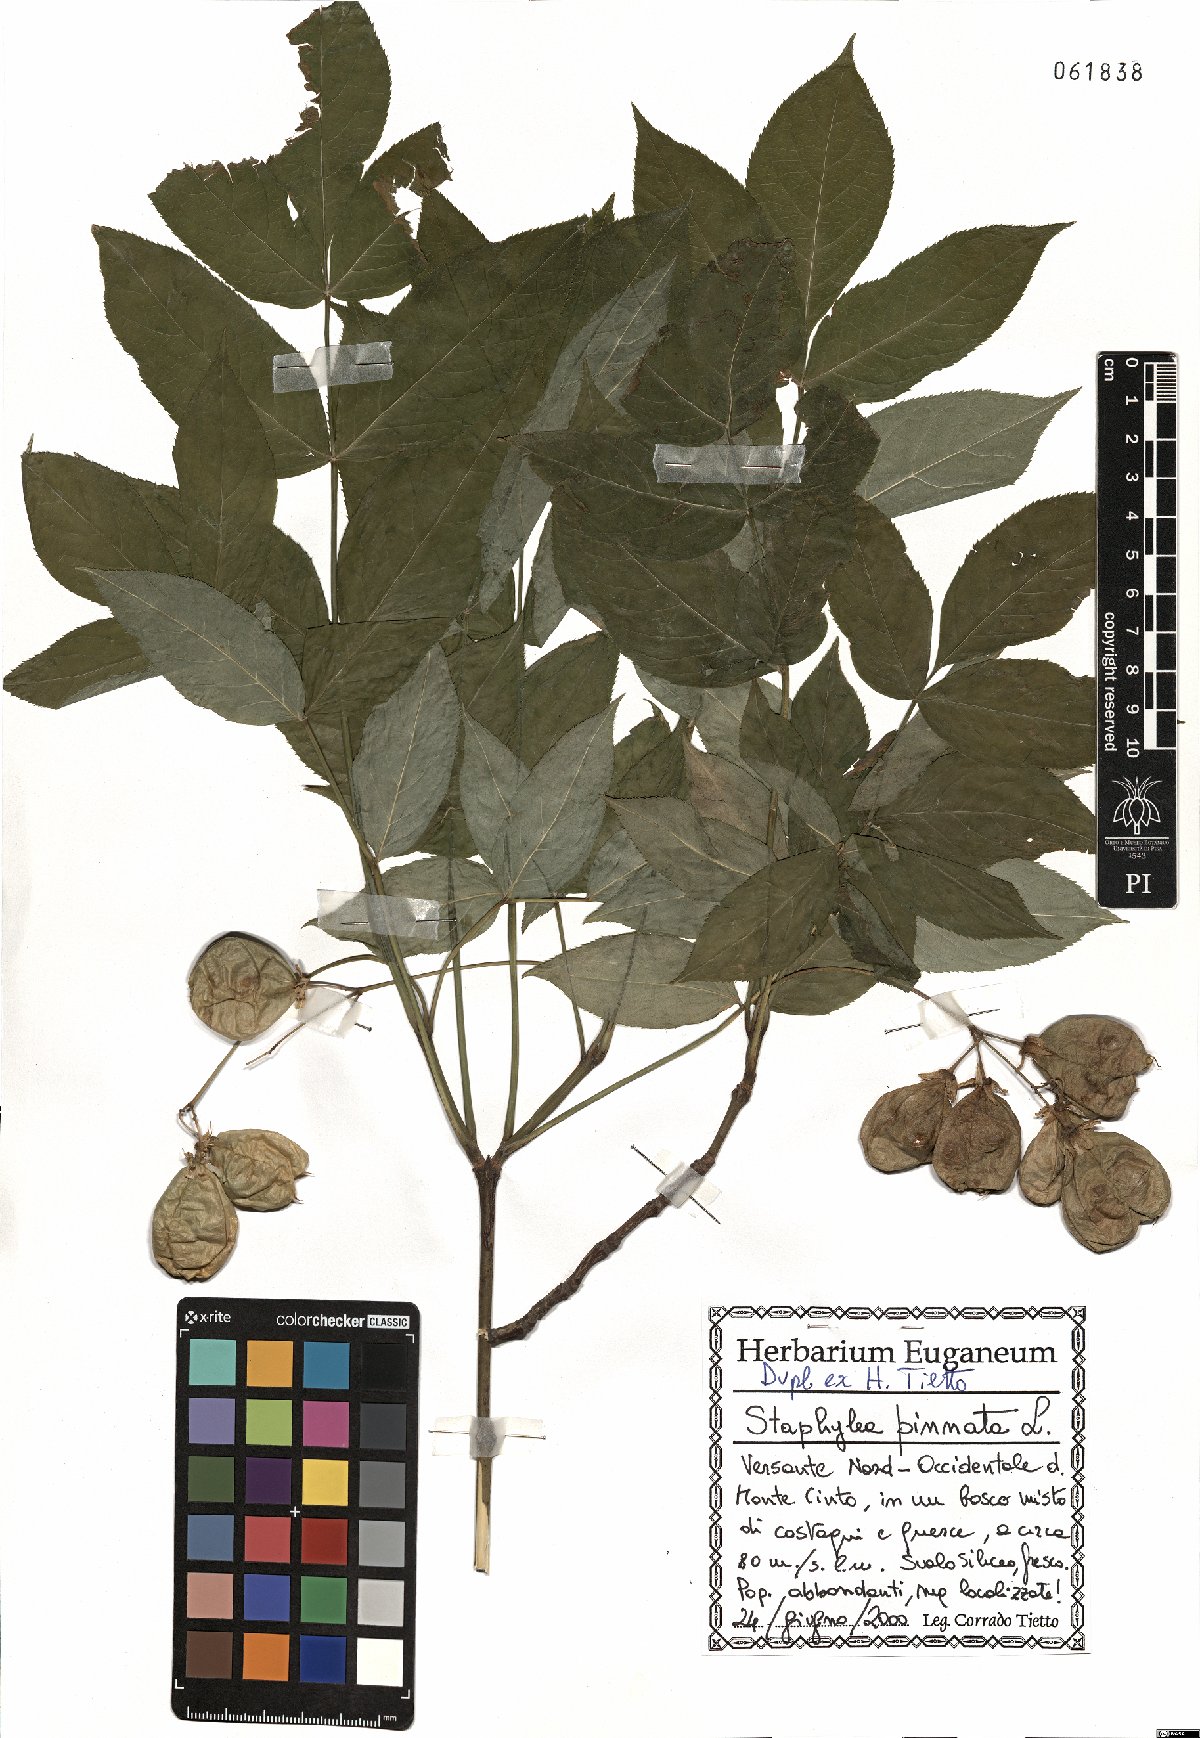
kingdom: Plantae
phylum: Tracheophyta
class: Magnoliopsida
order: Crossosomatales
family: Staphyleaceae
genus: Staphylea
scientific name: Staphylea pinnata
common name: Bladdernut
